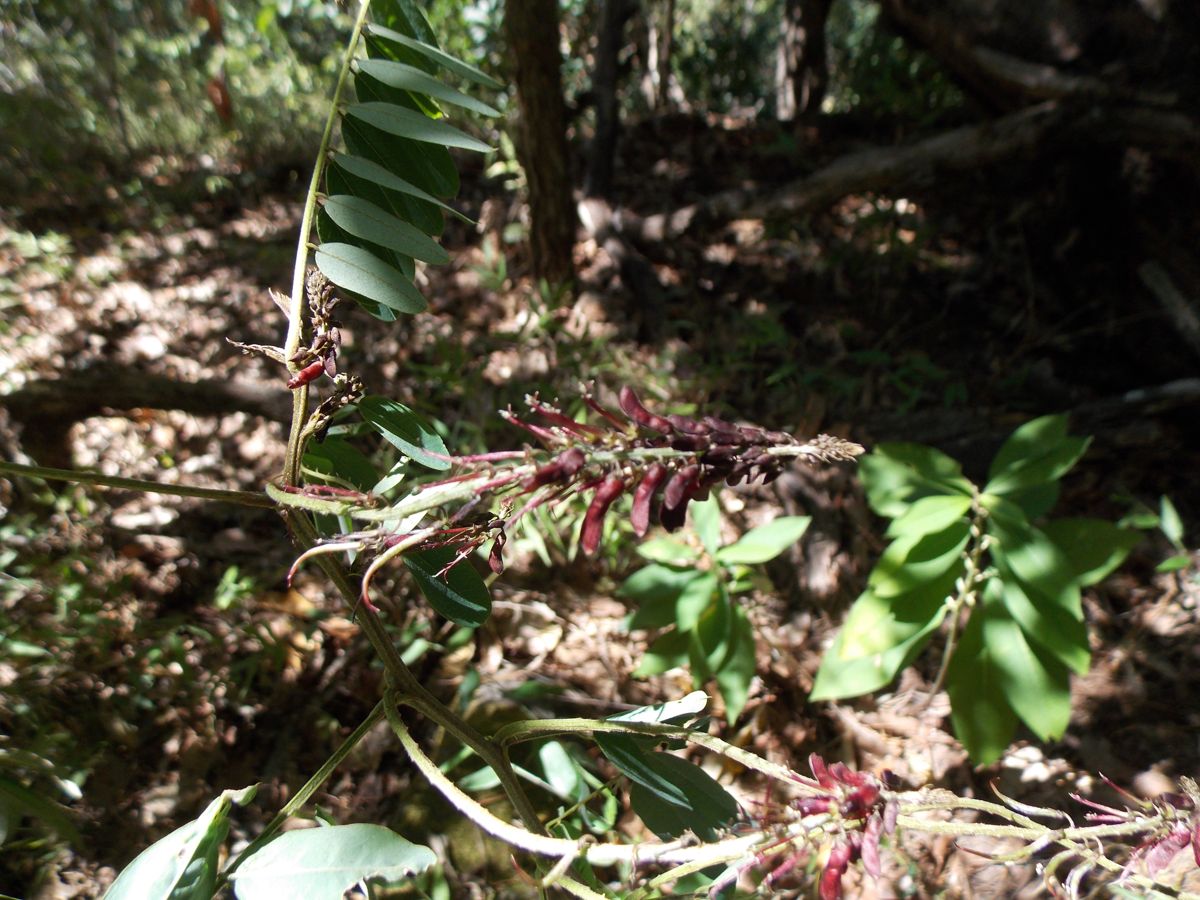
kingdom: Plantae
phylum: Tracheophyta
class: Magnoliopsida
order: Fabales
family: Fabaceae
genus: Indigofera
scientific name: Indigofera costaricensis
